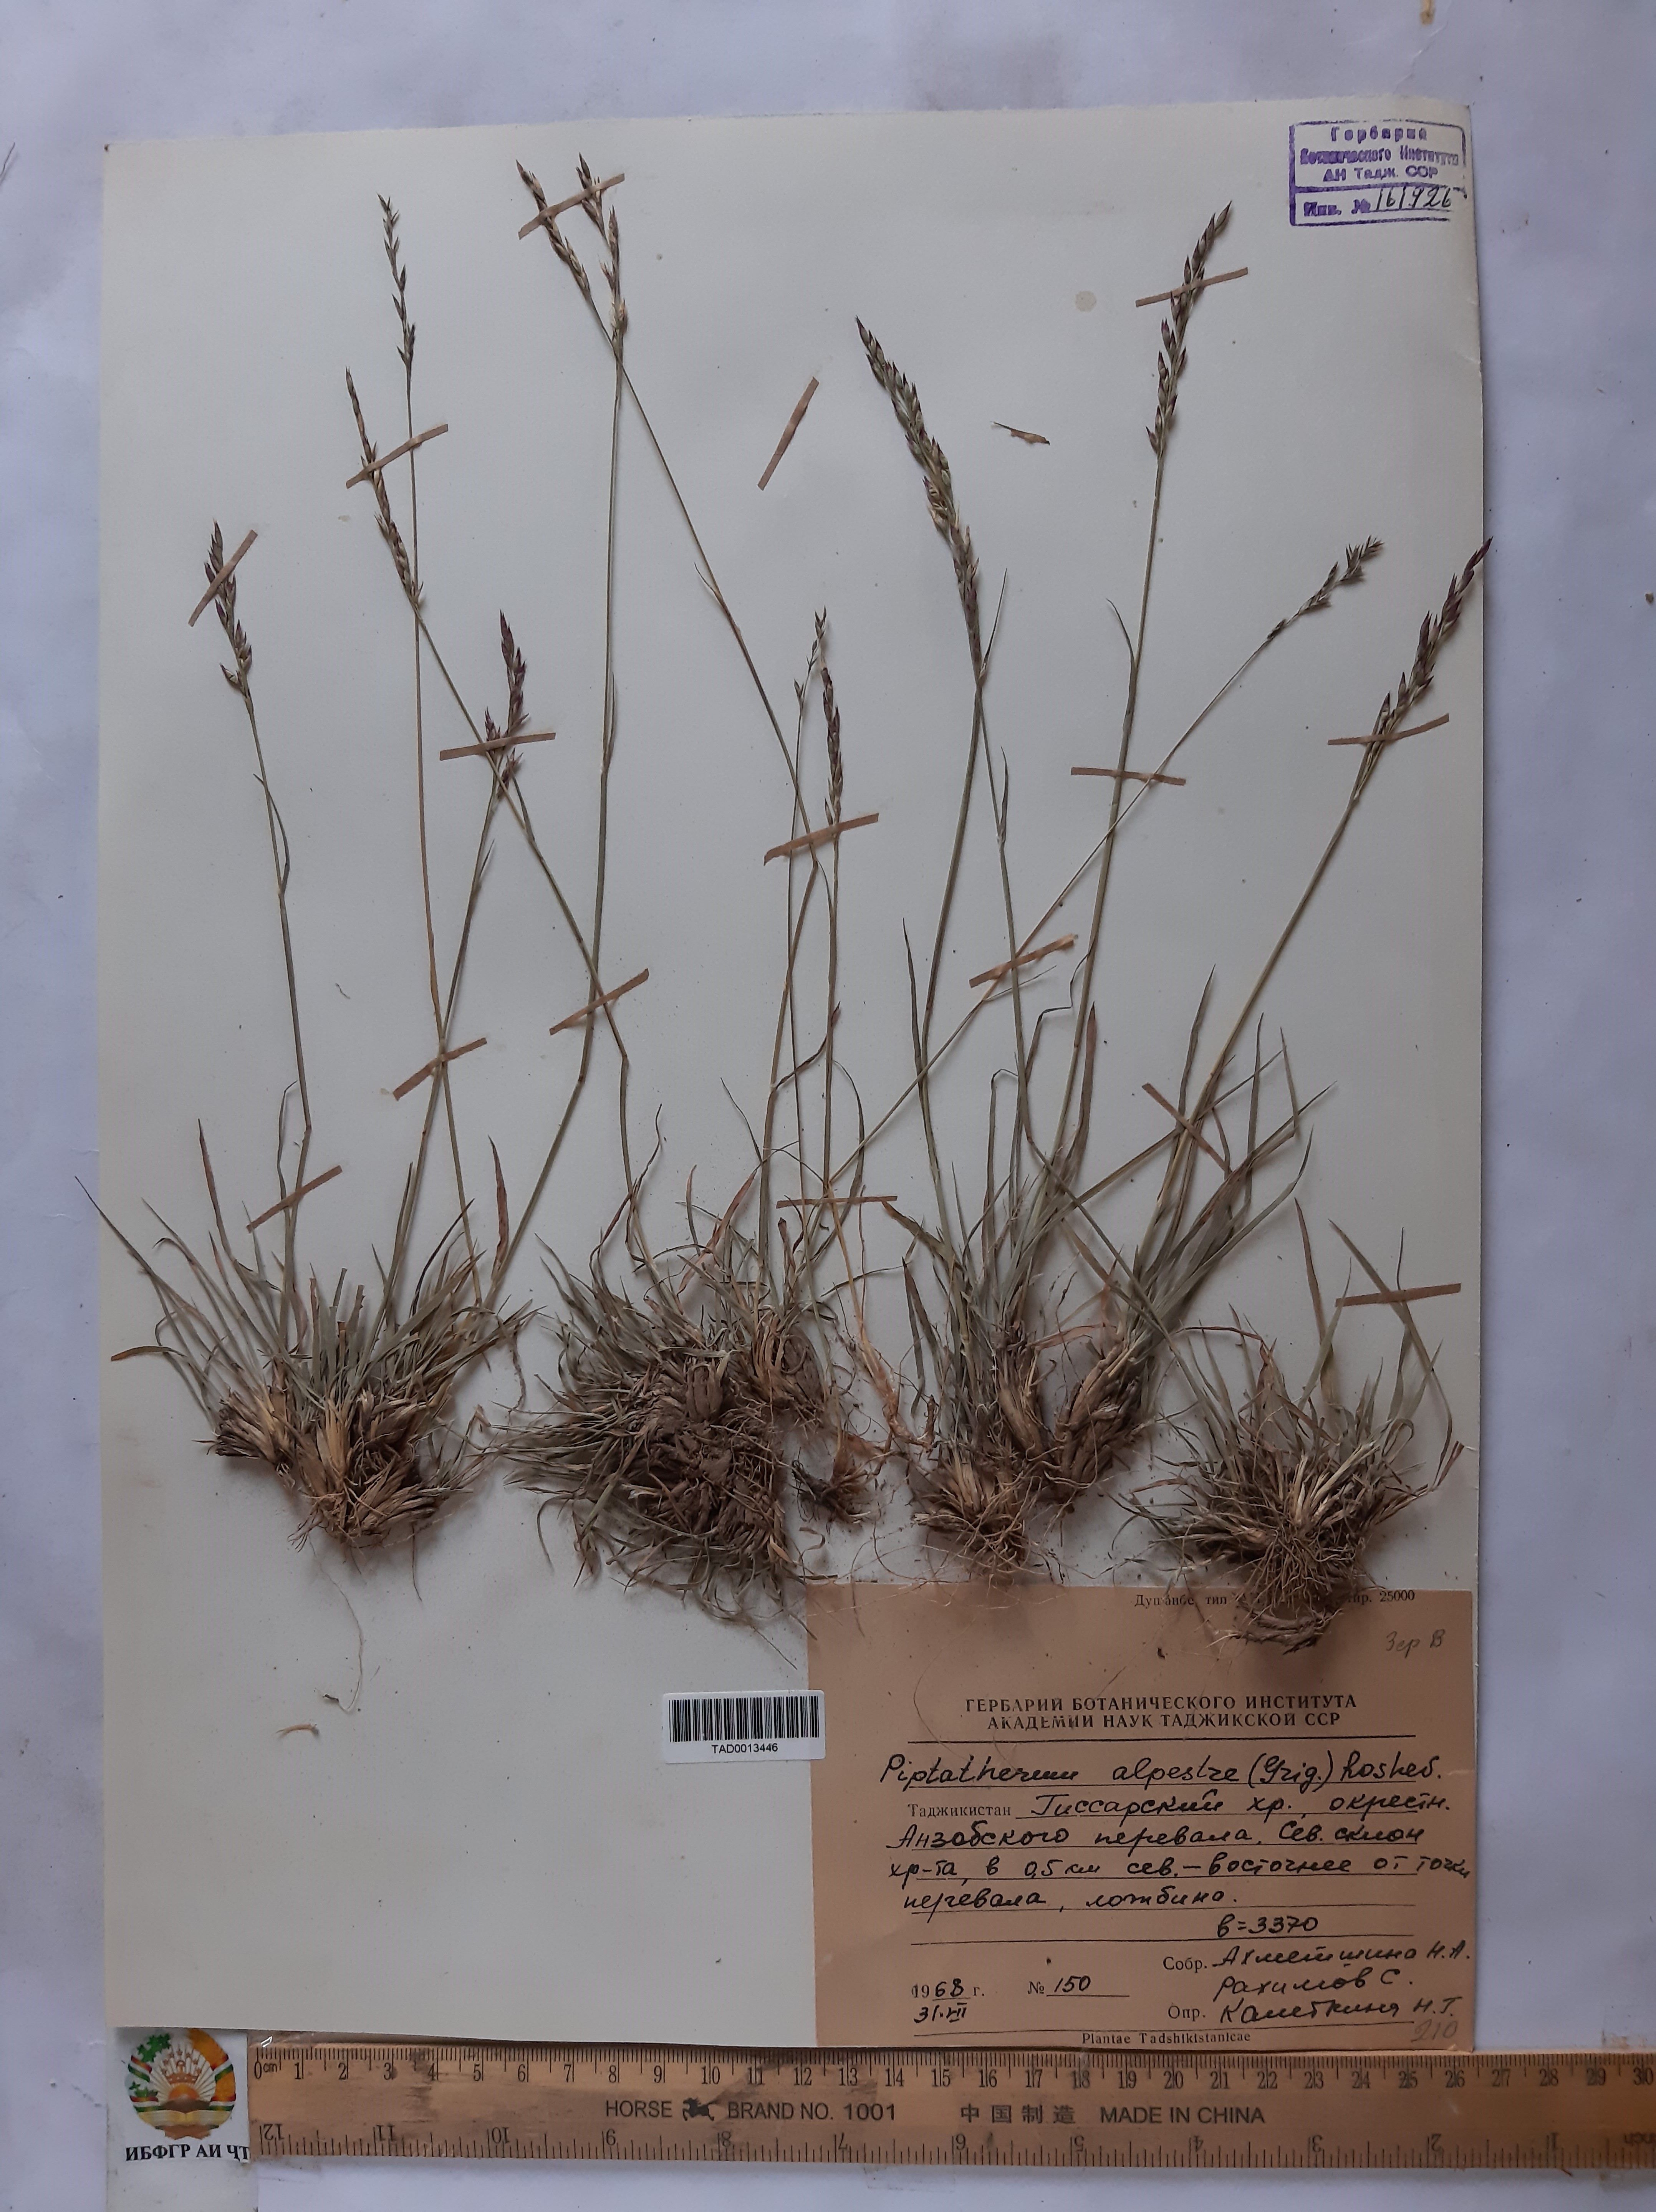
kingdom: Plantae
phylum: Tracheophyta
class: Liliopsida
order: Poales
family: Poaceae
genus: Piptatherum
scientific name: Piptatherum alpestre
